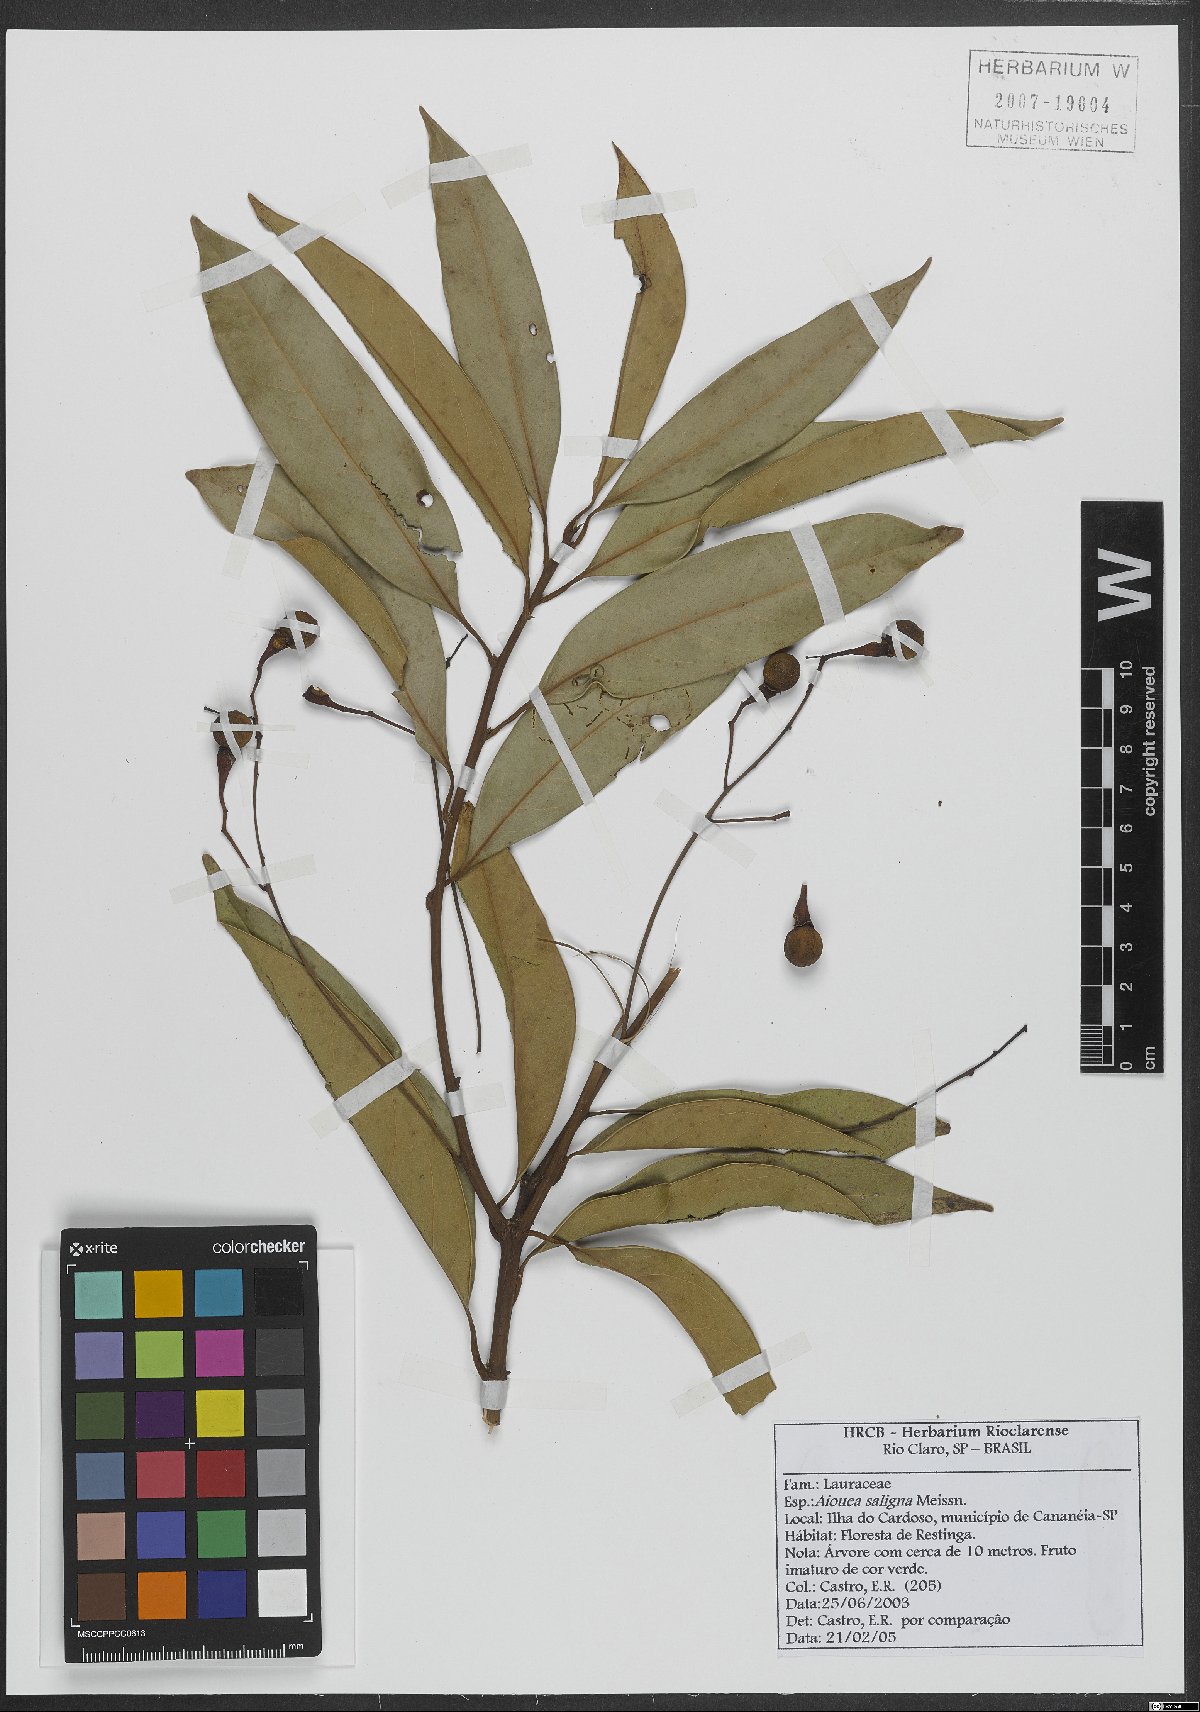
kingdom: Plantae
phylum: Tracheophyta
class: Magnoliopsida
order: Laurales
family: Lauraceae
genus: Aiouea
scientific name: Aiouea saligna
